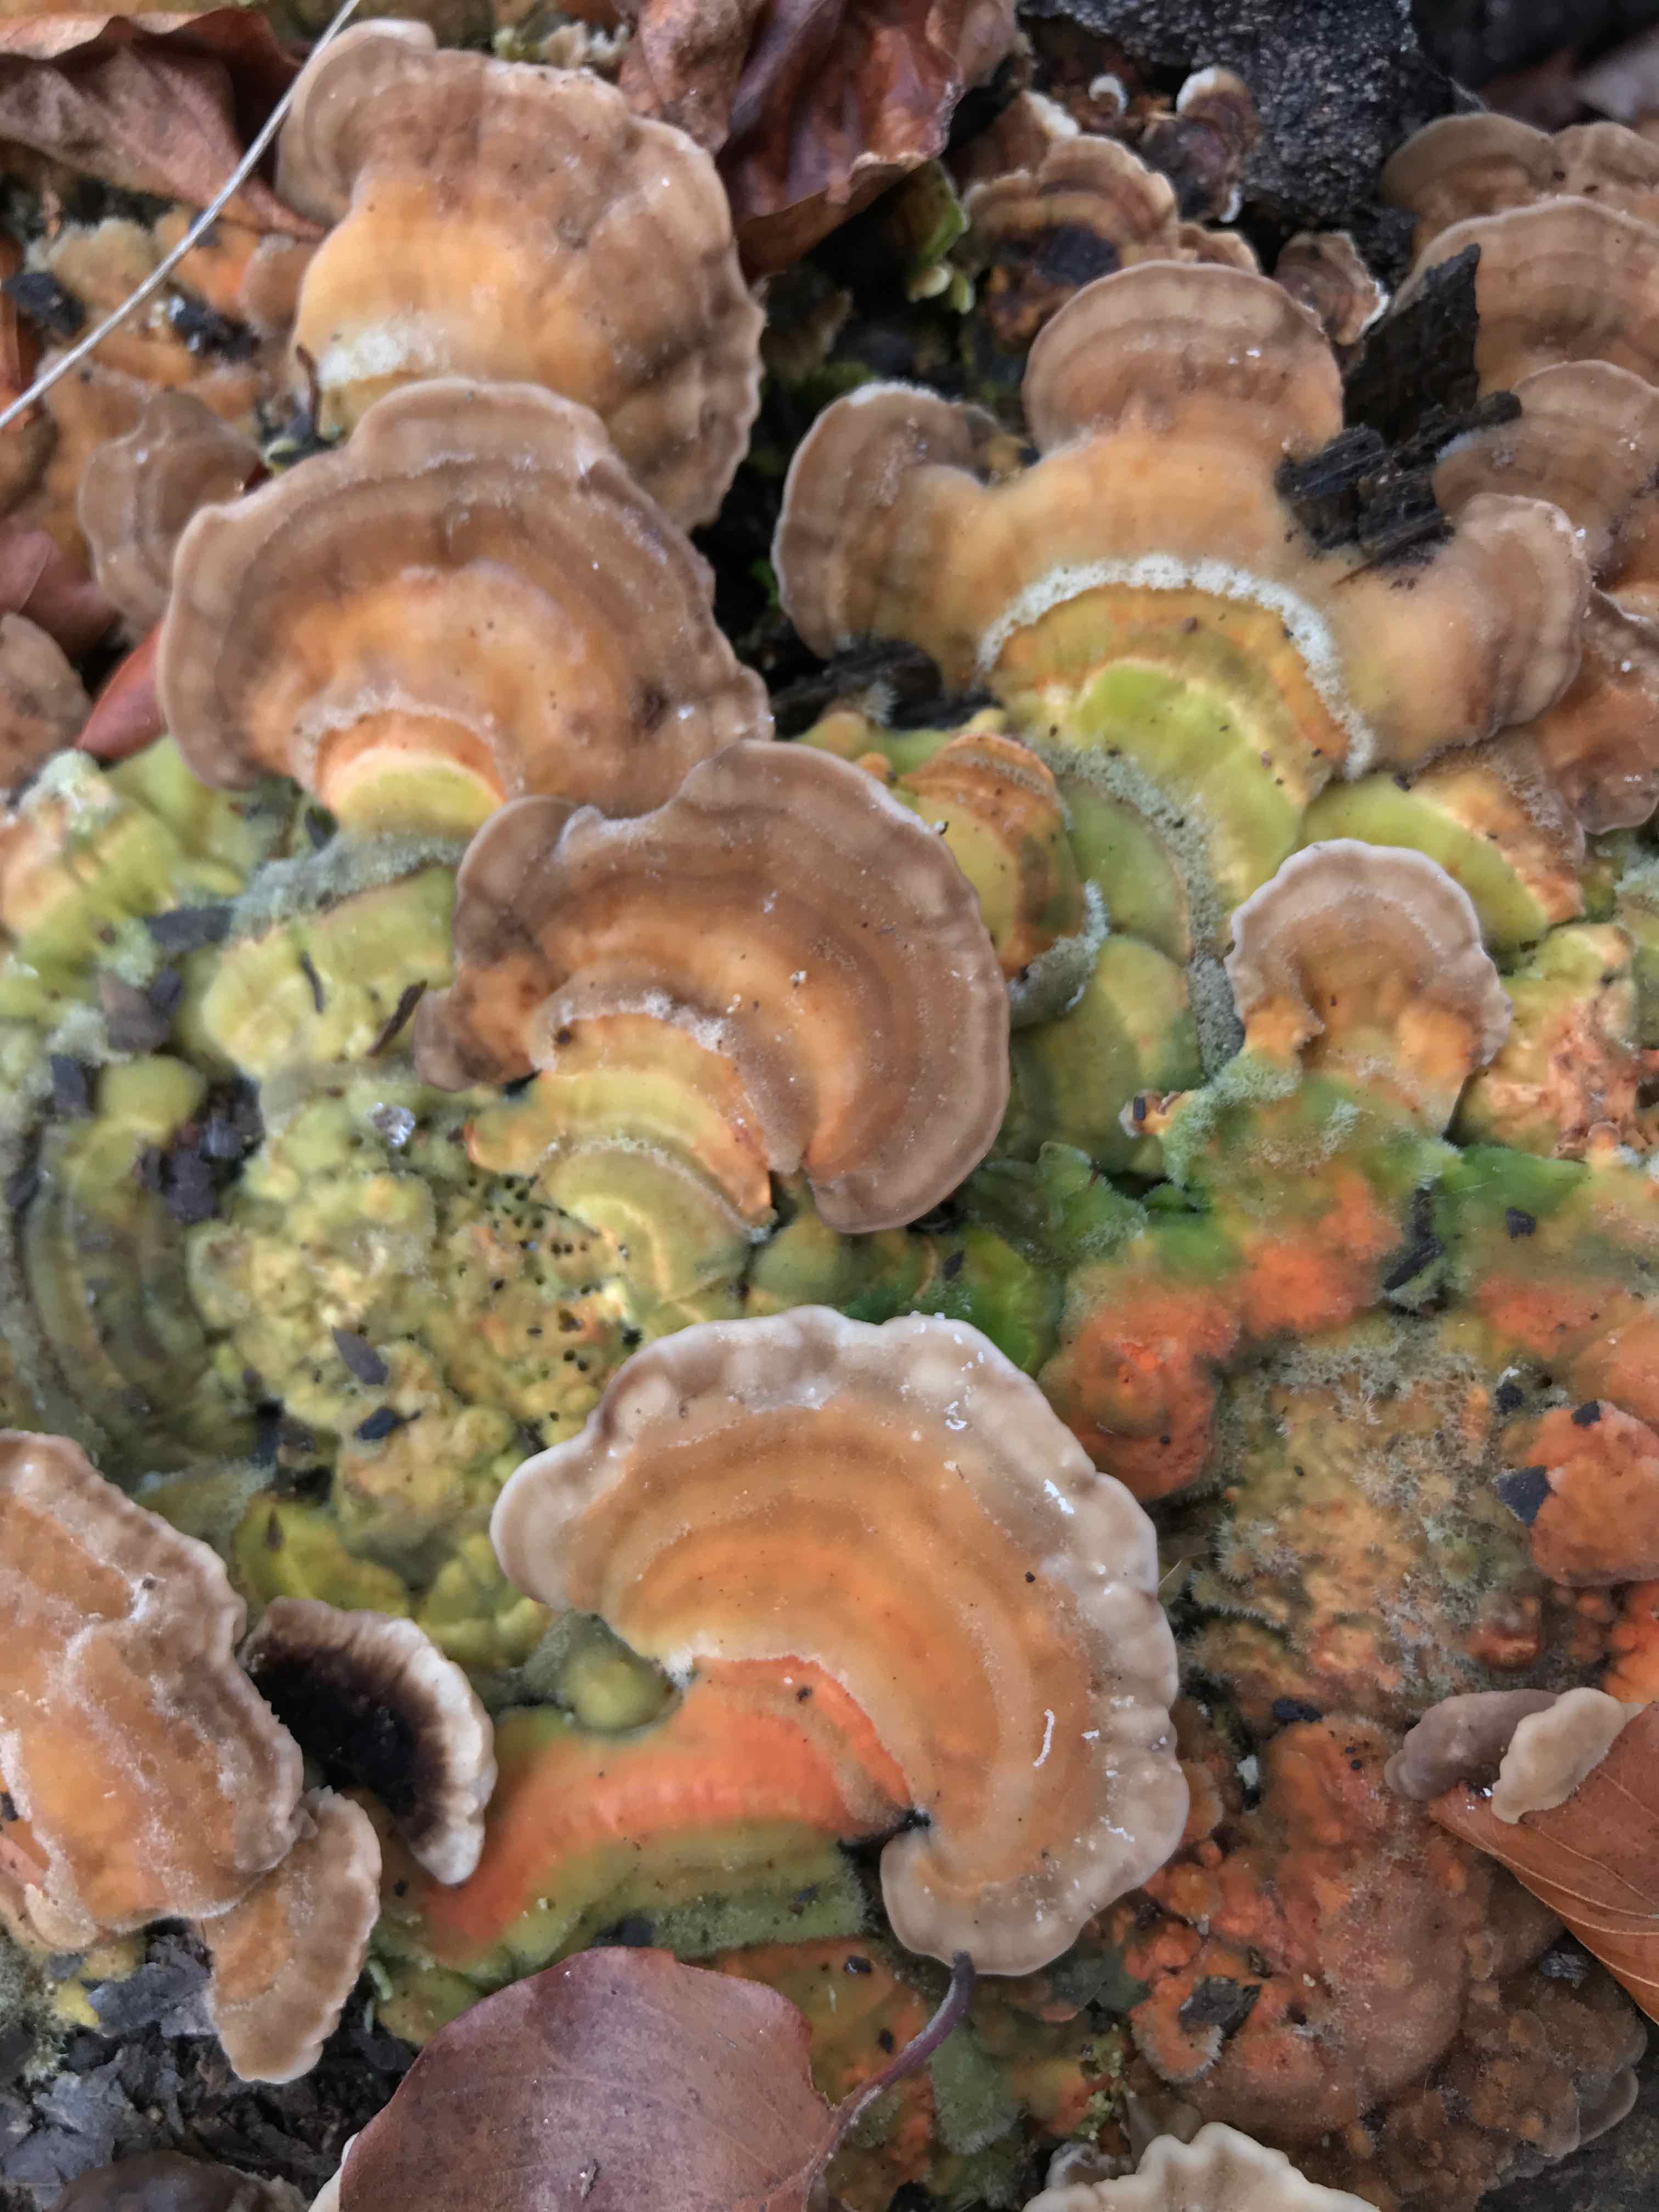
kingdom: Fungi
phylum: Basidiomycota
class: Agaricomycetes
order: Polyporales
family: Polyporaceae
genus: Lenzites
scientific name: Lenzites betulinus
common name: birke-læderporesvamp
